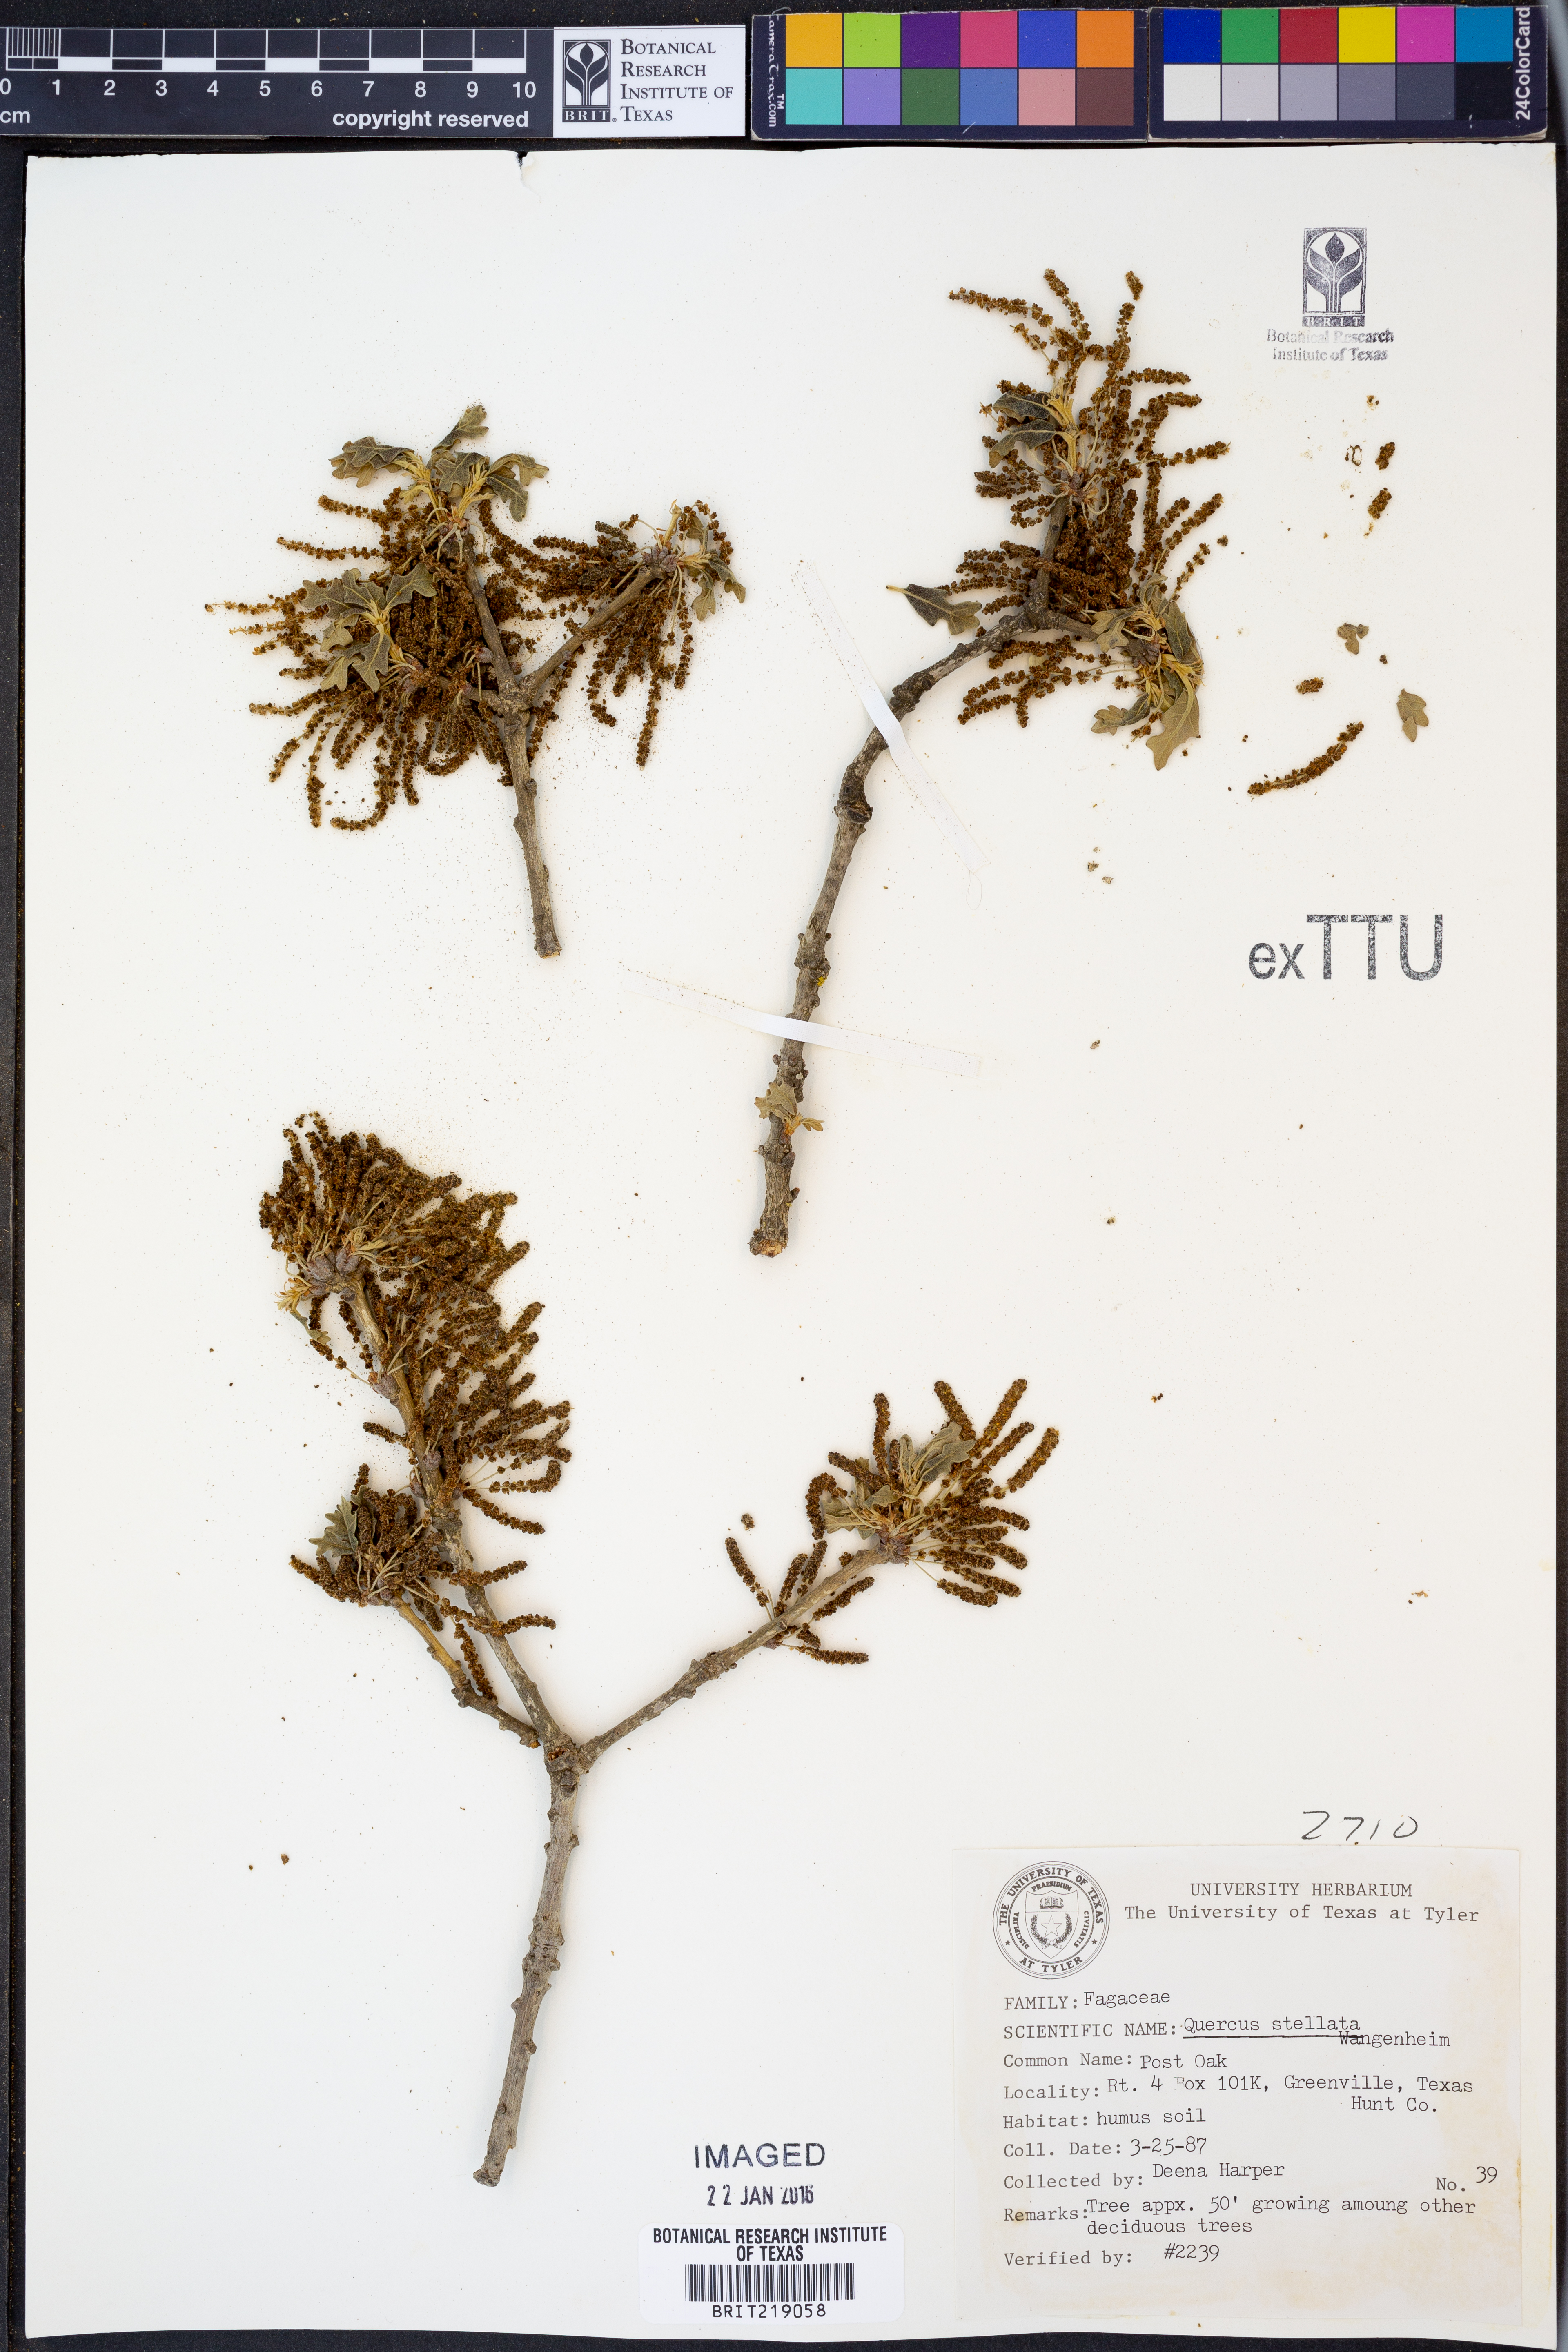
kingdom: Plantae
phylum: Tracheophyta
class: Magnoliopsida
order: Fagales
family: Fagaceae
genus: Quercus
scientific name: Quercus stellata
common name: Post oak
